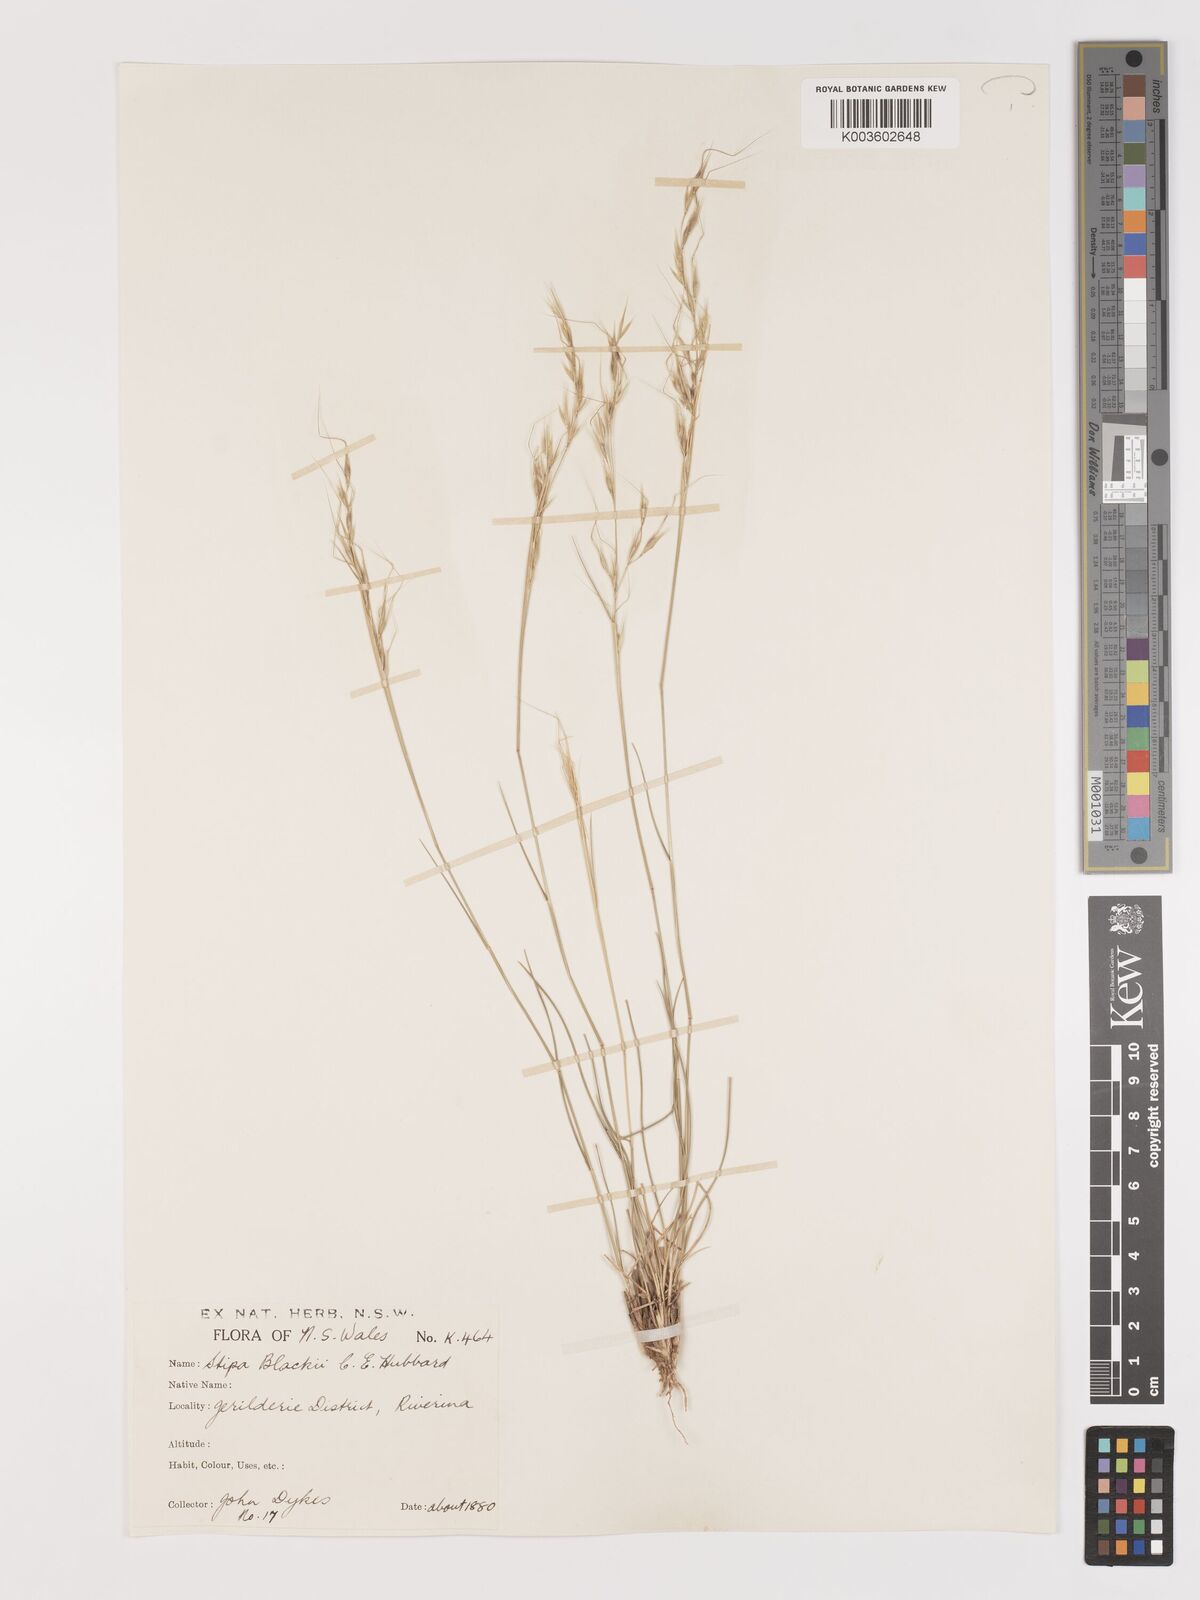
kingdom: Plantae
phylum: Tracheophyta
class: Liliopsida
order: Poales
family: Poaceae
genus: Austrostipa
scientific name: Austrostipa blackii
